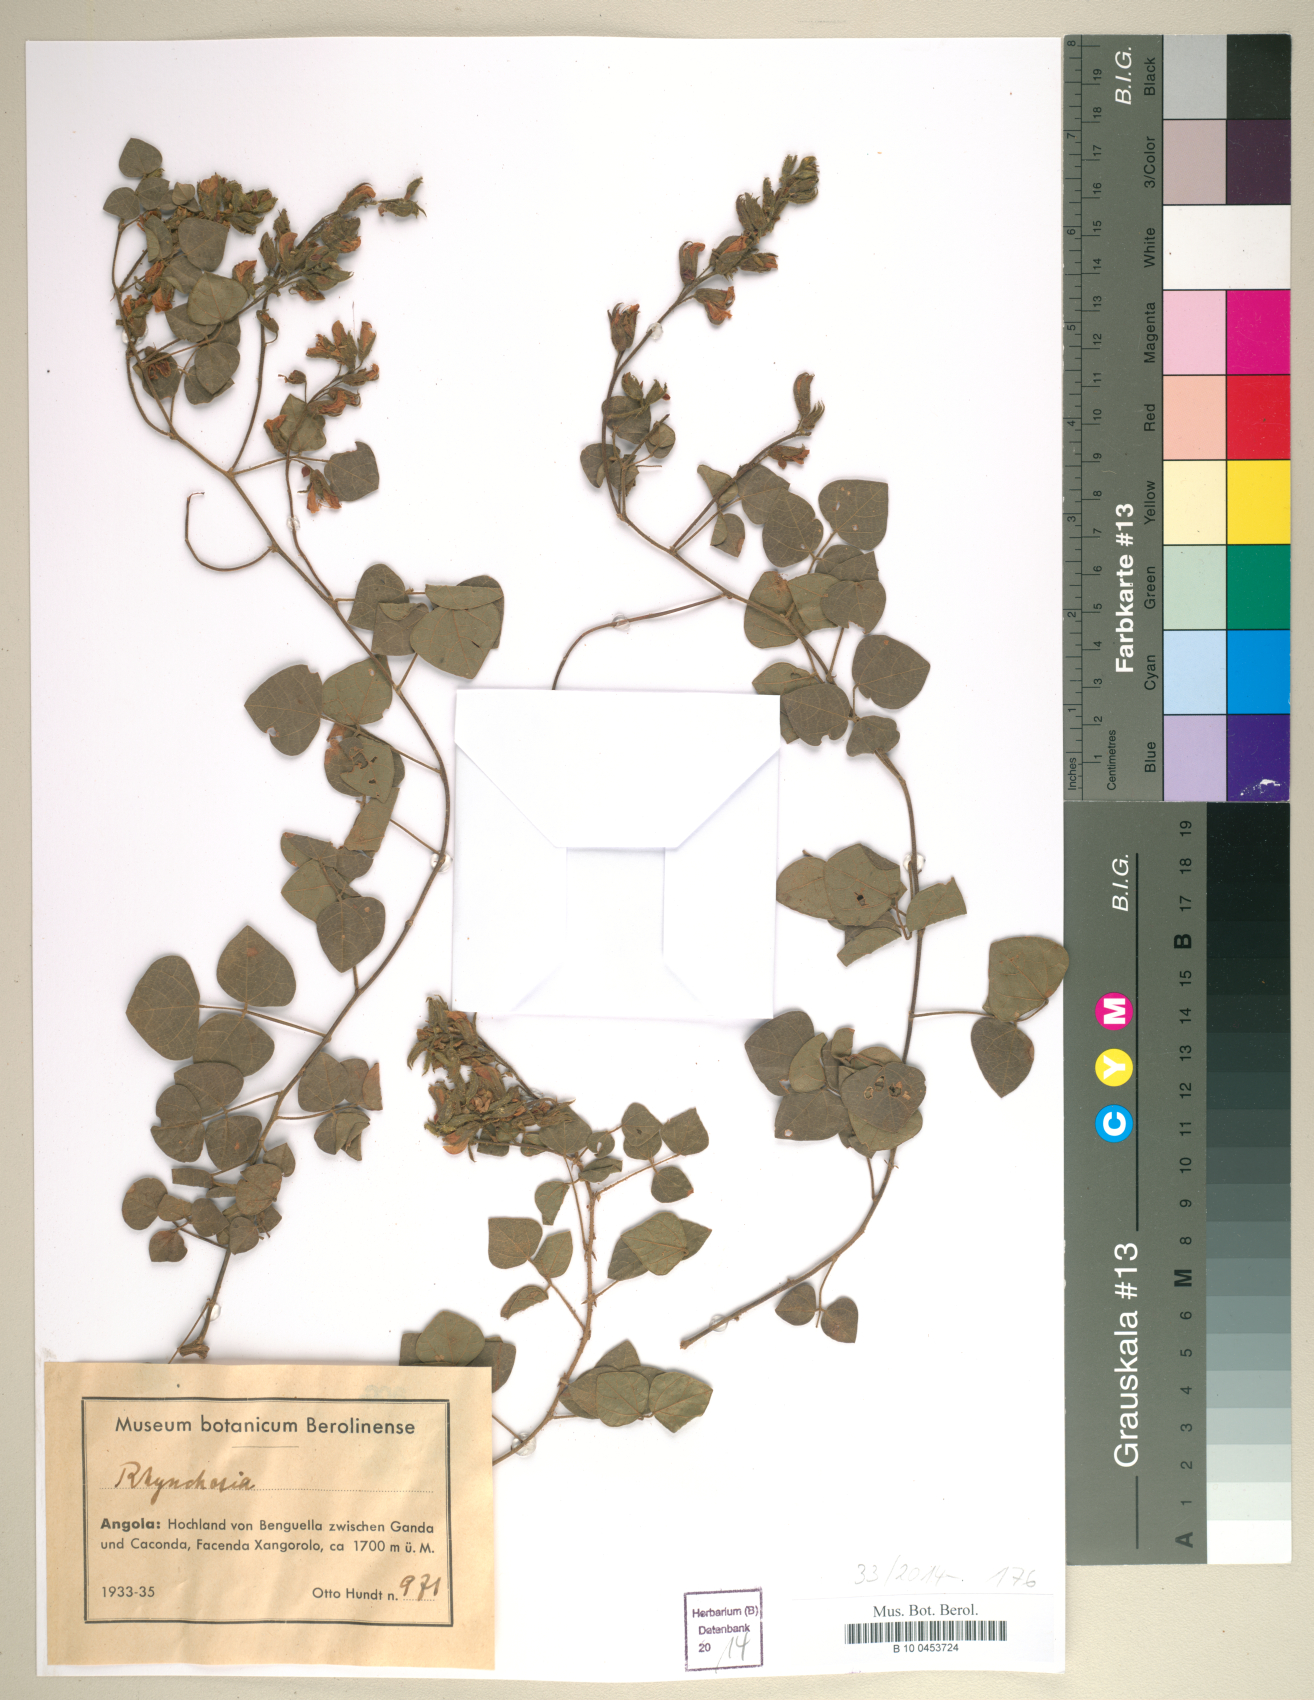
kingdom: Plantae
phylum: Tracheophyta
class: Magnoliopsida
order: Fabales
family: Fabaceae
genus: Rhynchosia
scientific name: Rhynchosia
